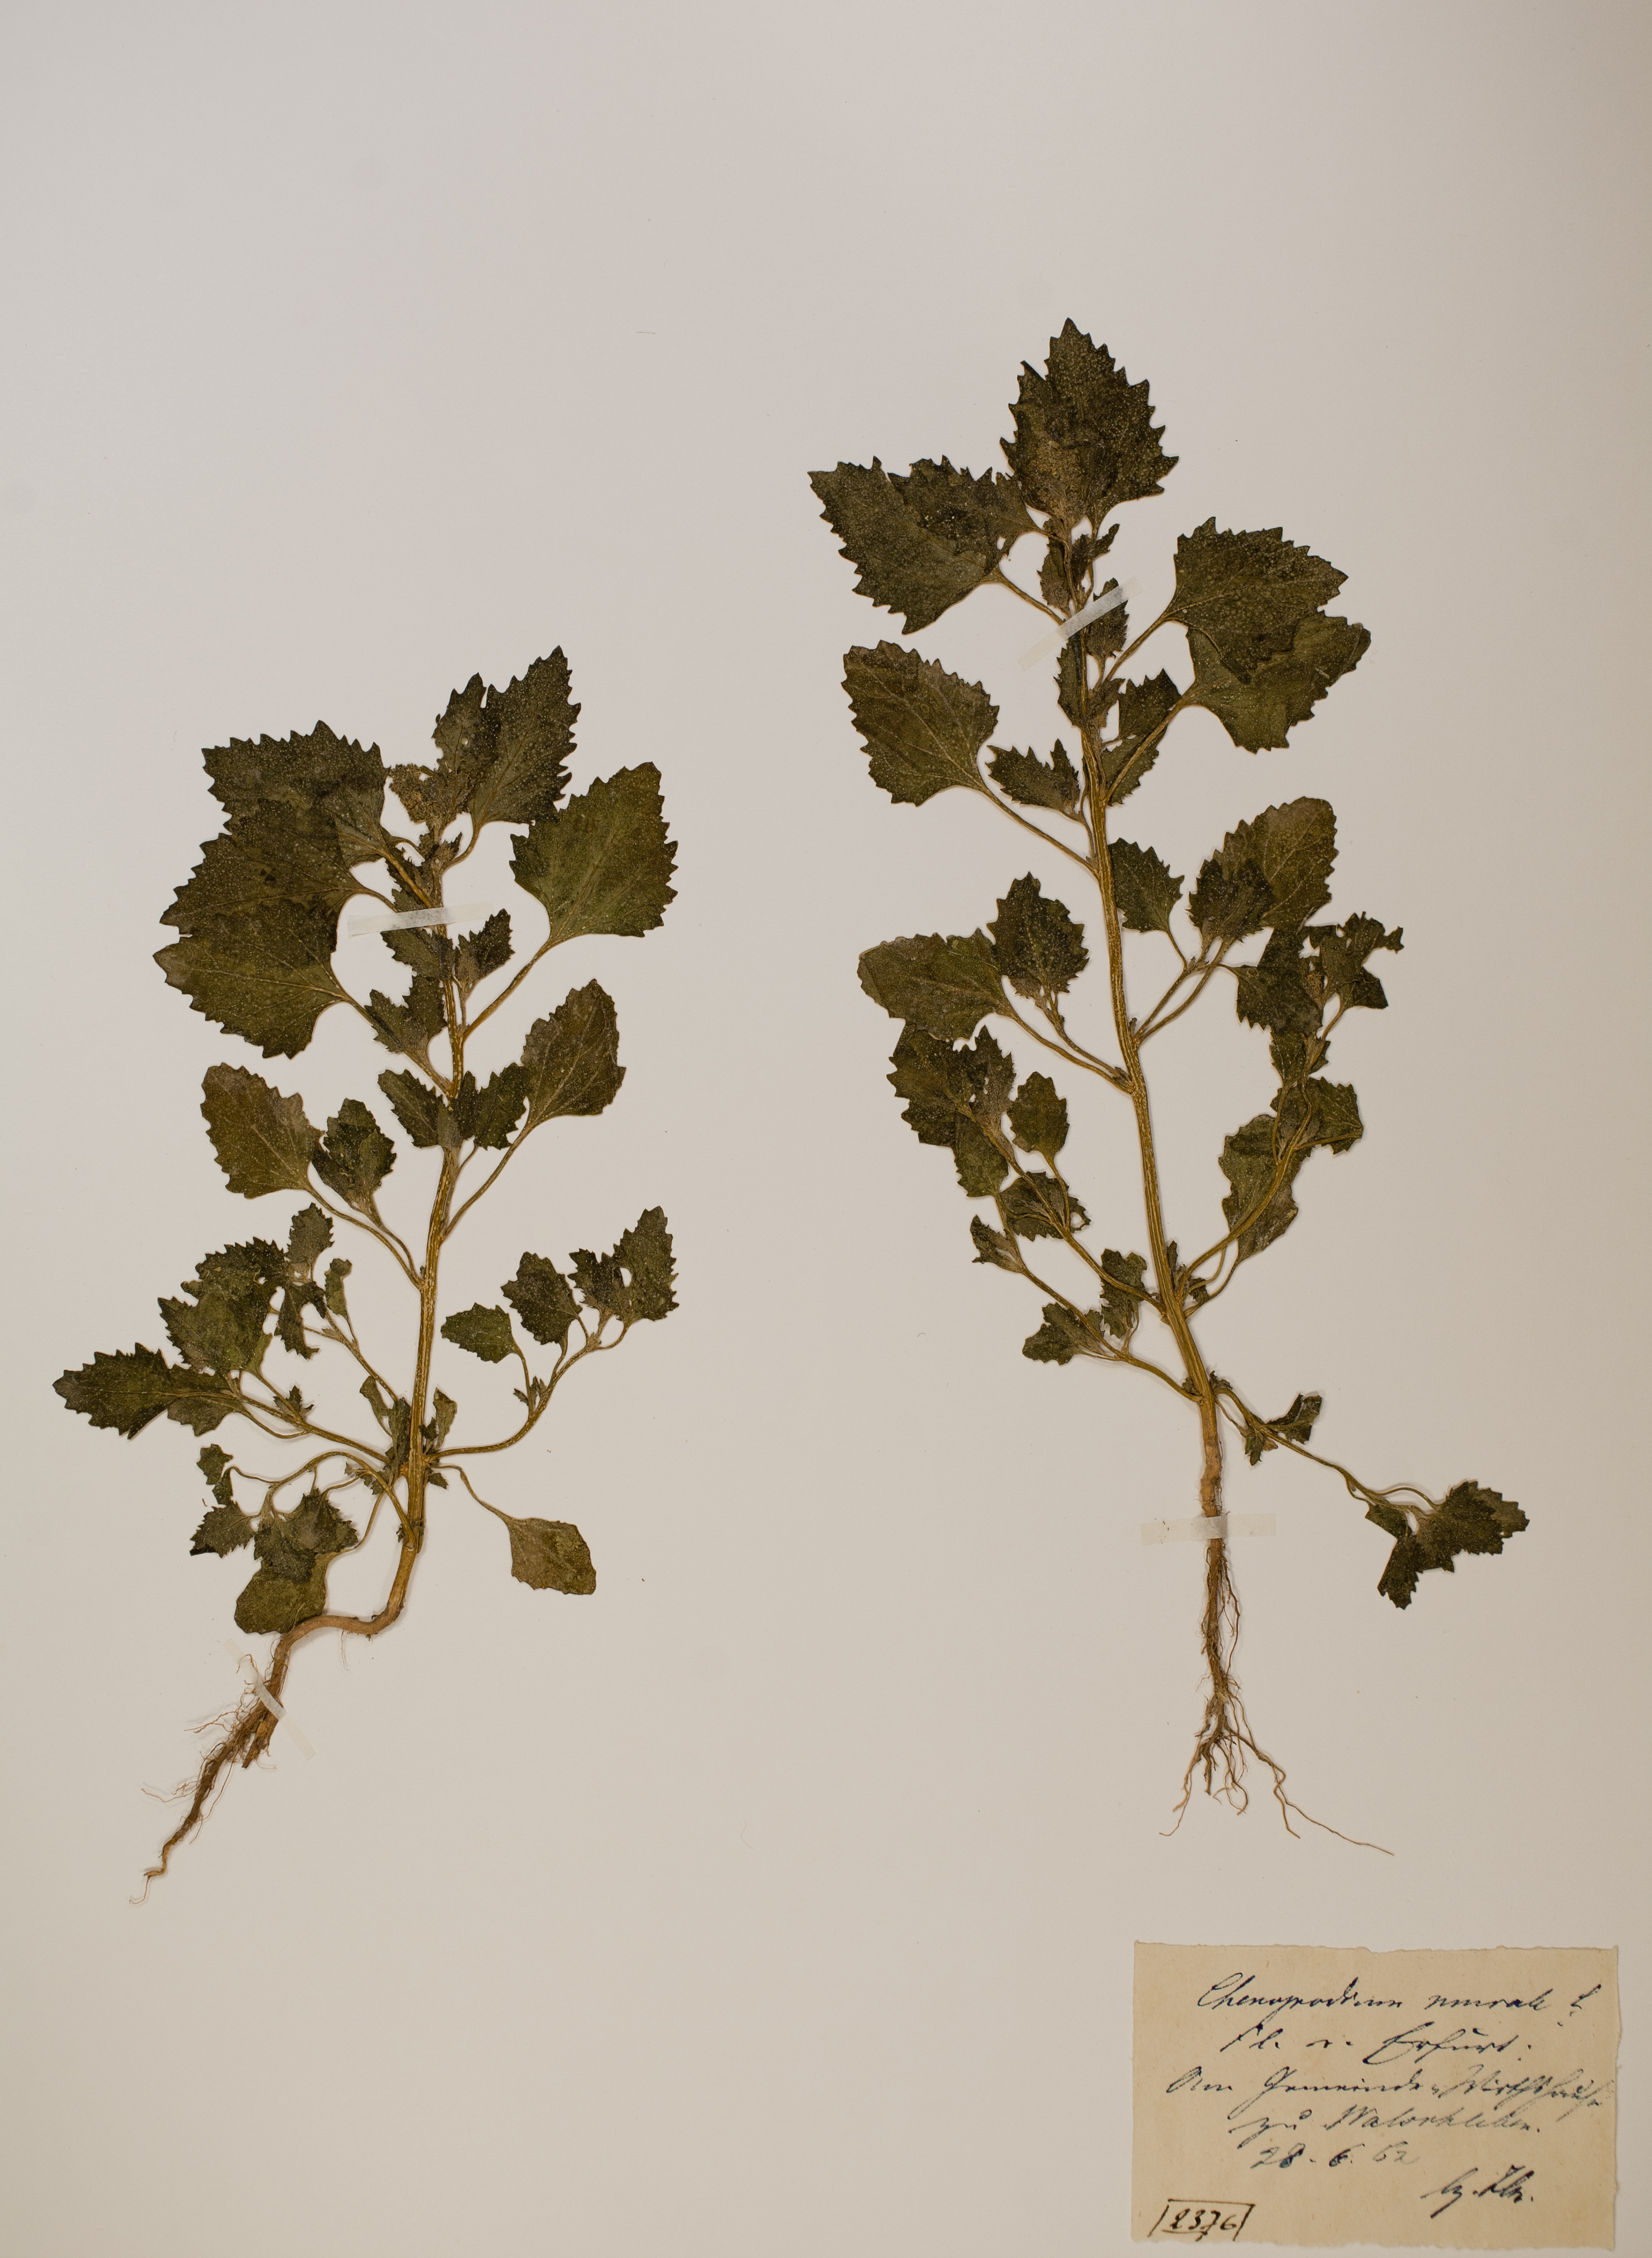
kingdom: Plantae
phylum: Tracheophyta
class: Magnoliopsida
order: Caryophyllales
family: Amaranthaceae
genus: Chenopodiastrum
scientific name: Chenopodiastrum murale
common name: Sowbane
